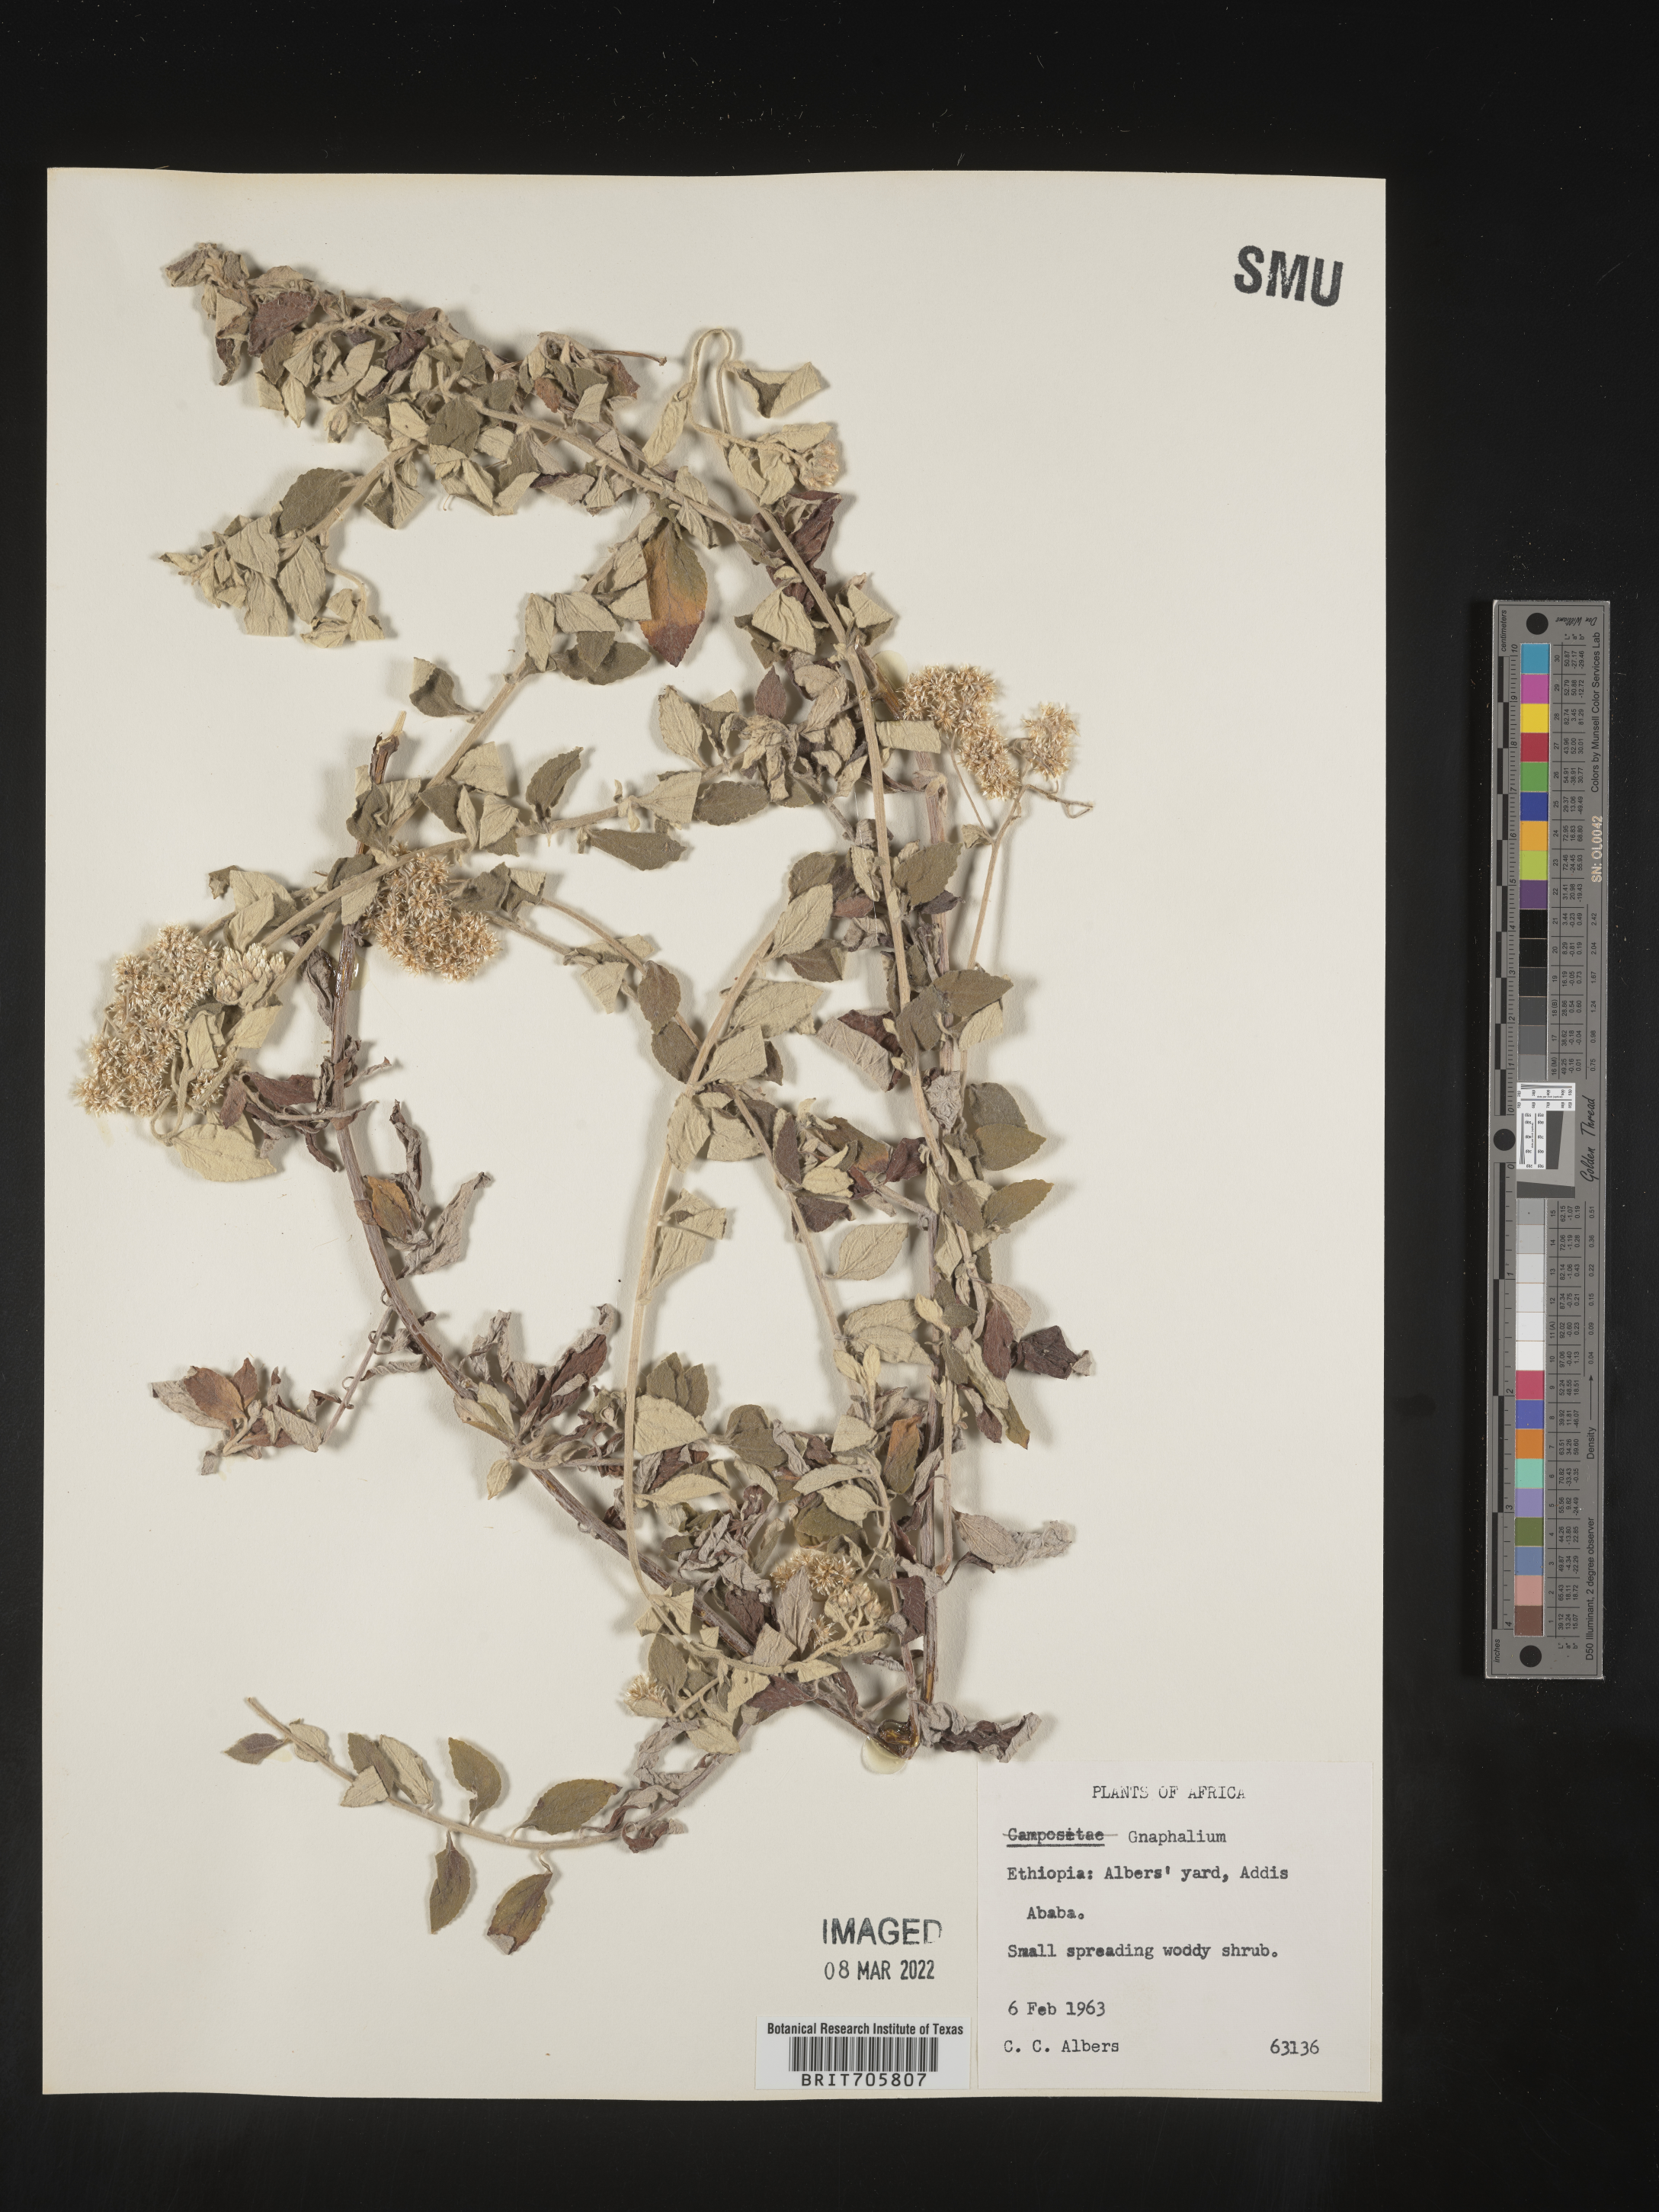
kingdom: Plantae
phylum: Tracheophyta
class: Magnoliopsida
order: Asterales
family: Asteraceae
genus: Pseudognaphalium
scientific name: Pseudognaphalium
